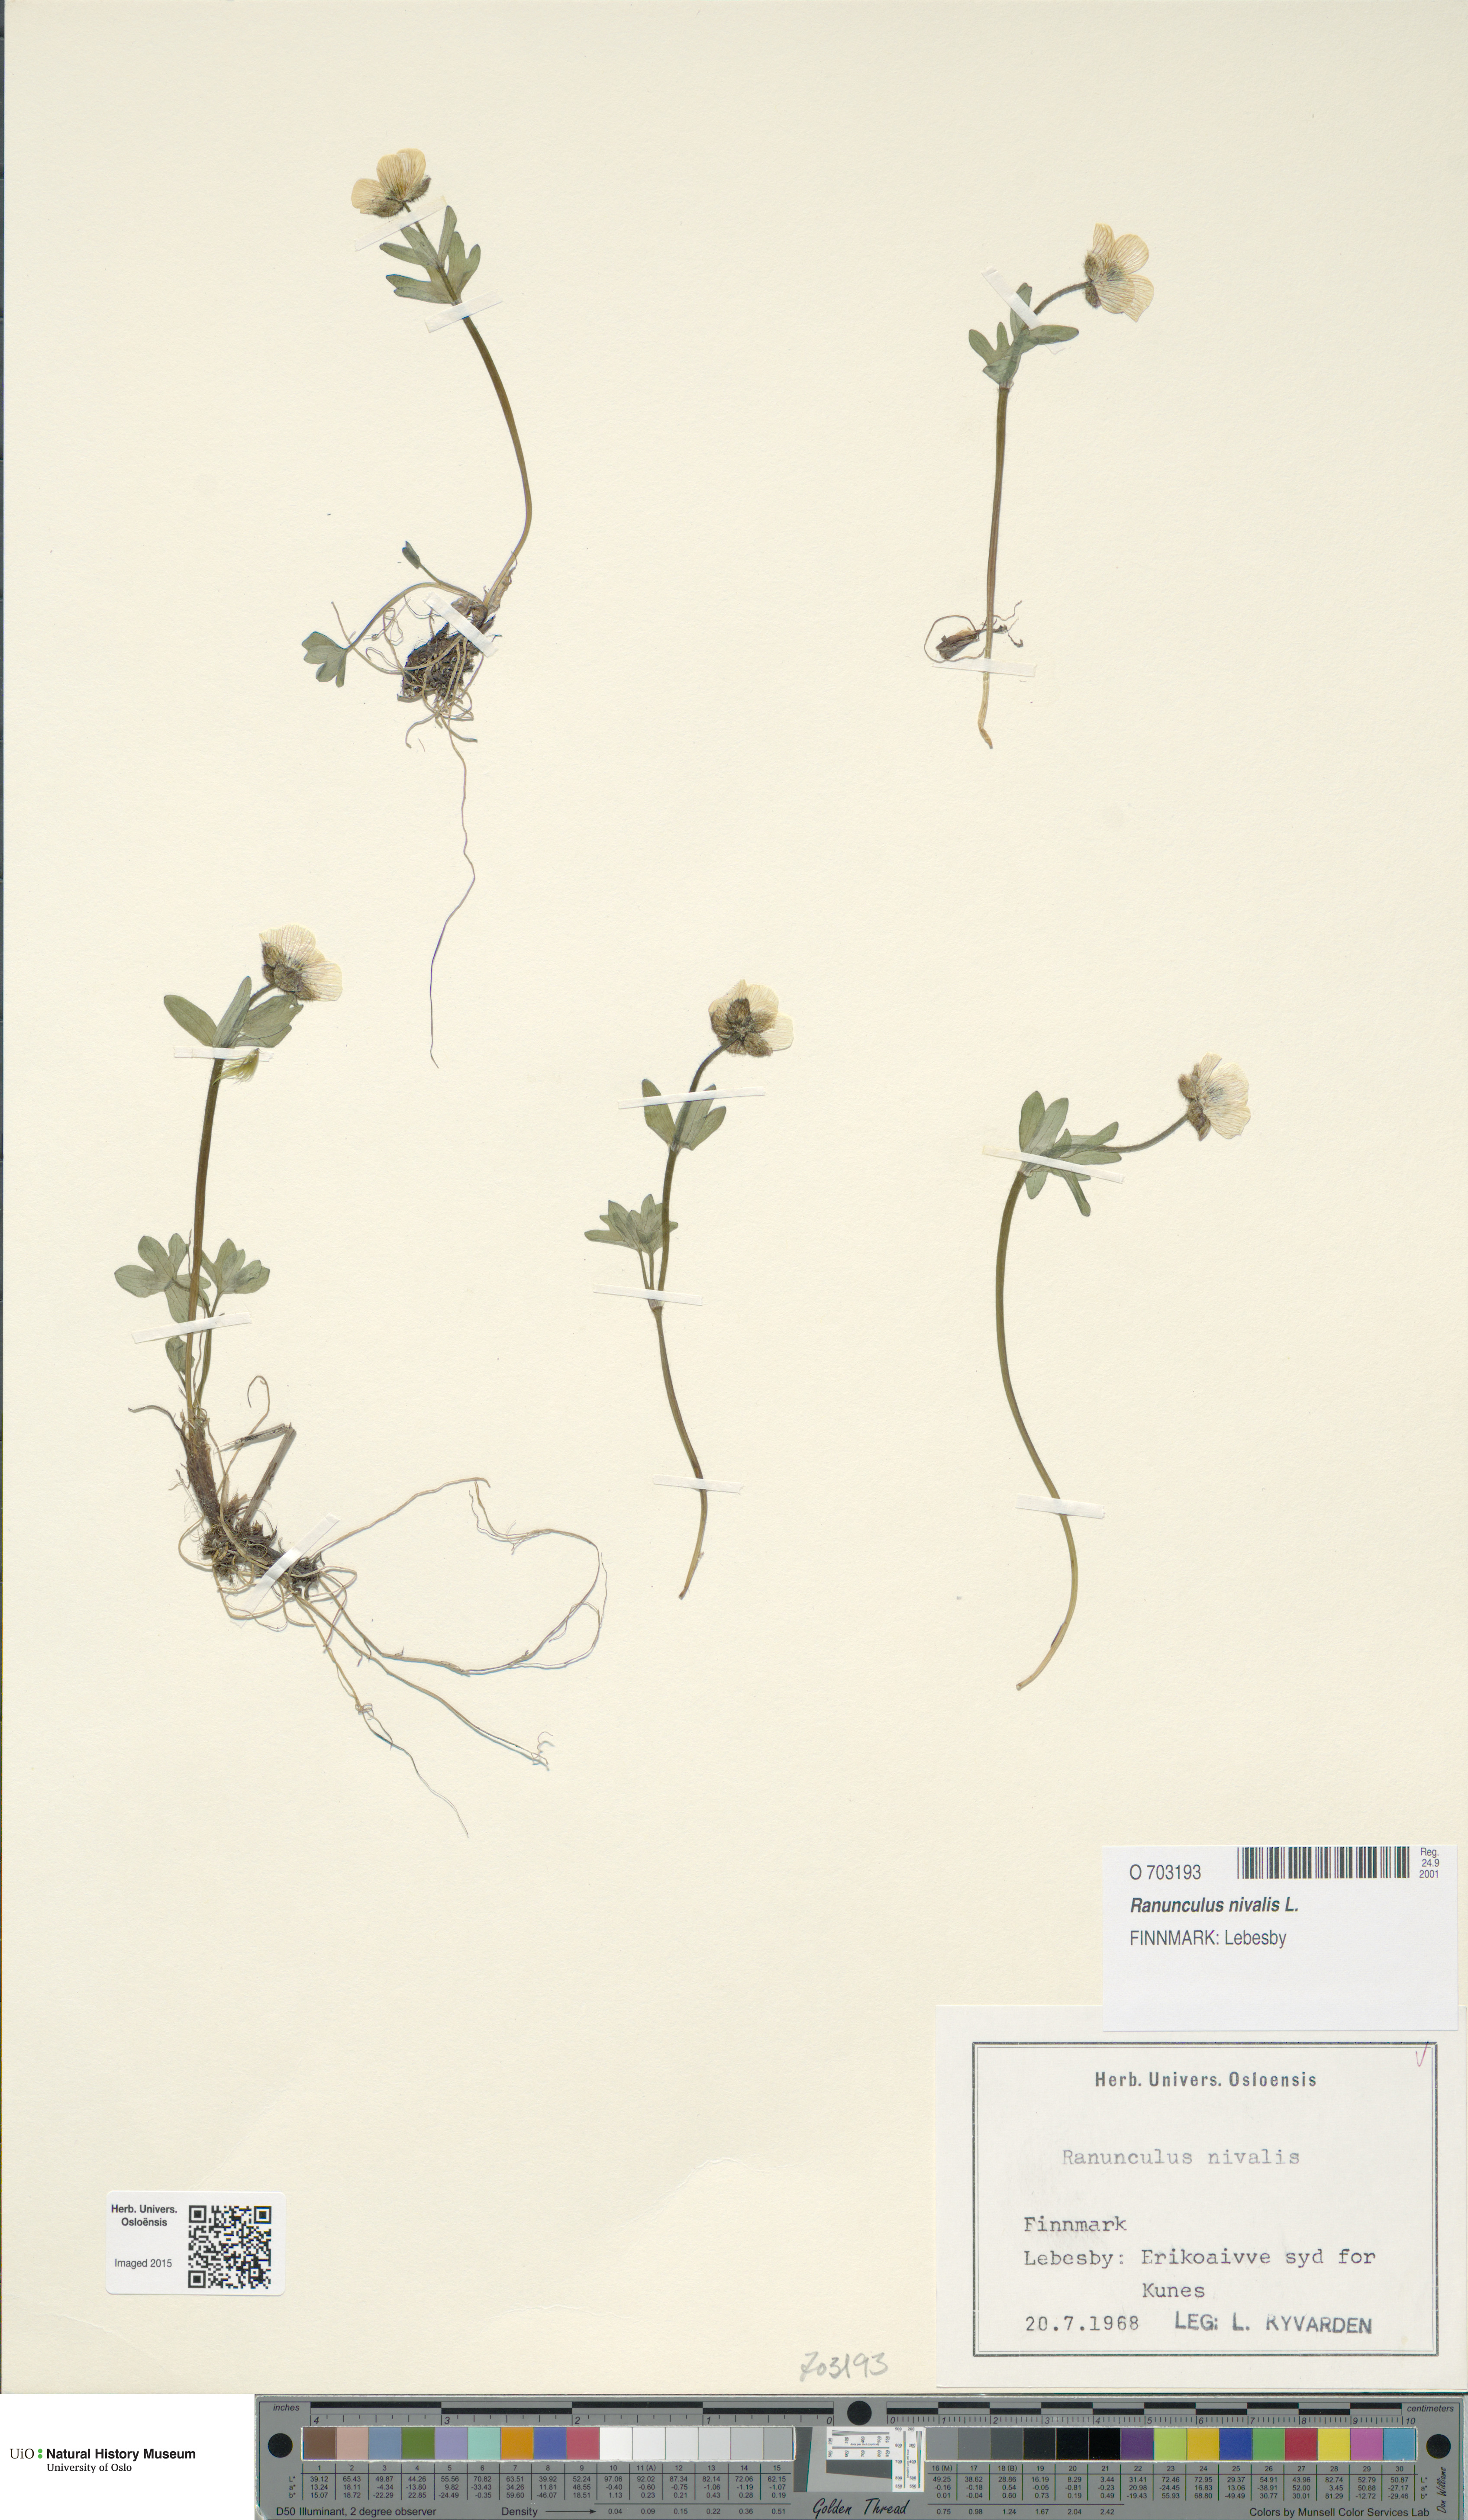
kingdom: Plantae
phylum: Tracheophyta
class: Magnoliopsida
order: Ranunculales
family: Ranunculaceae
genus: Ranunculus
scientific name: Ranunculus nivalis
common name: Snow buttercup
